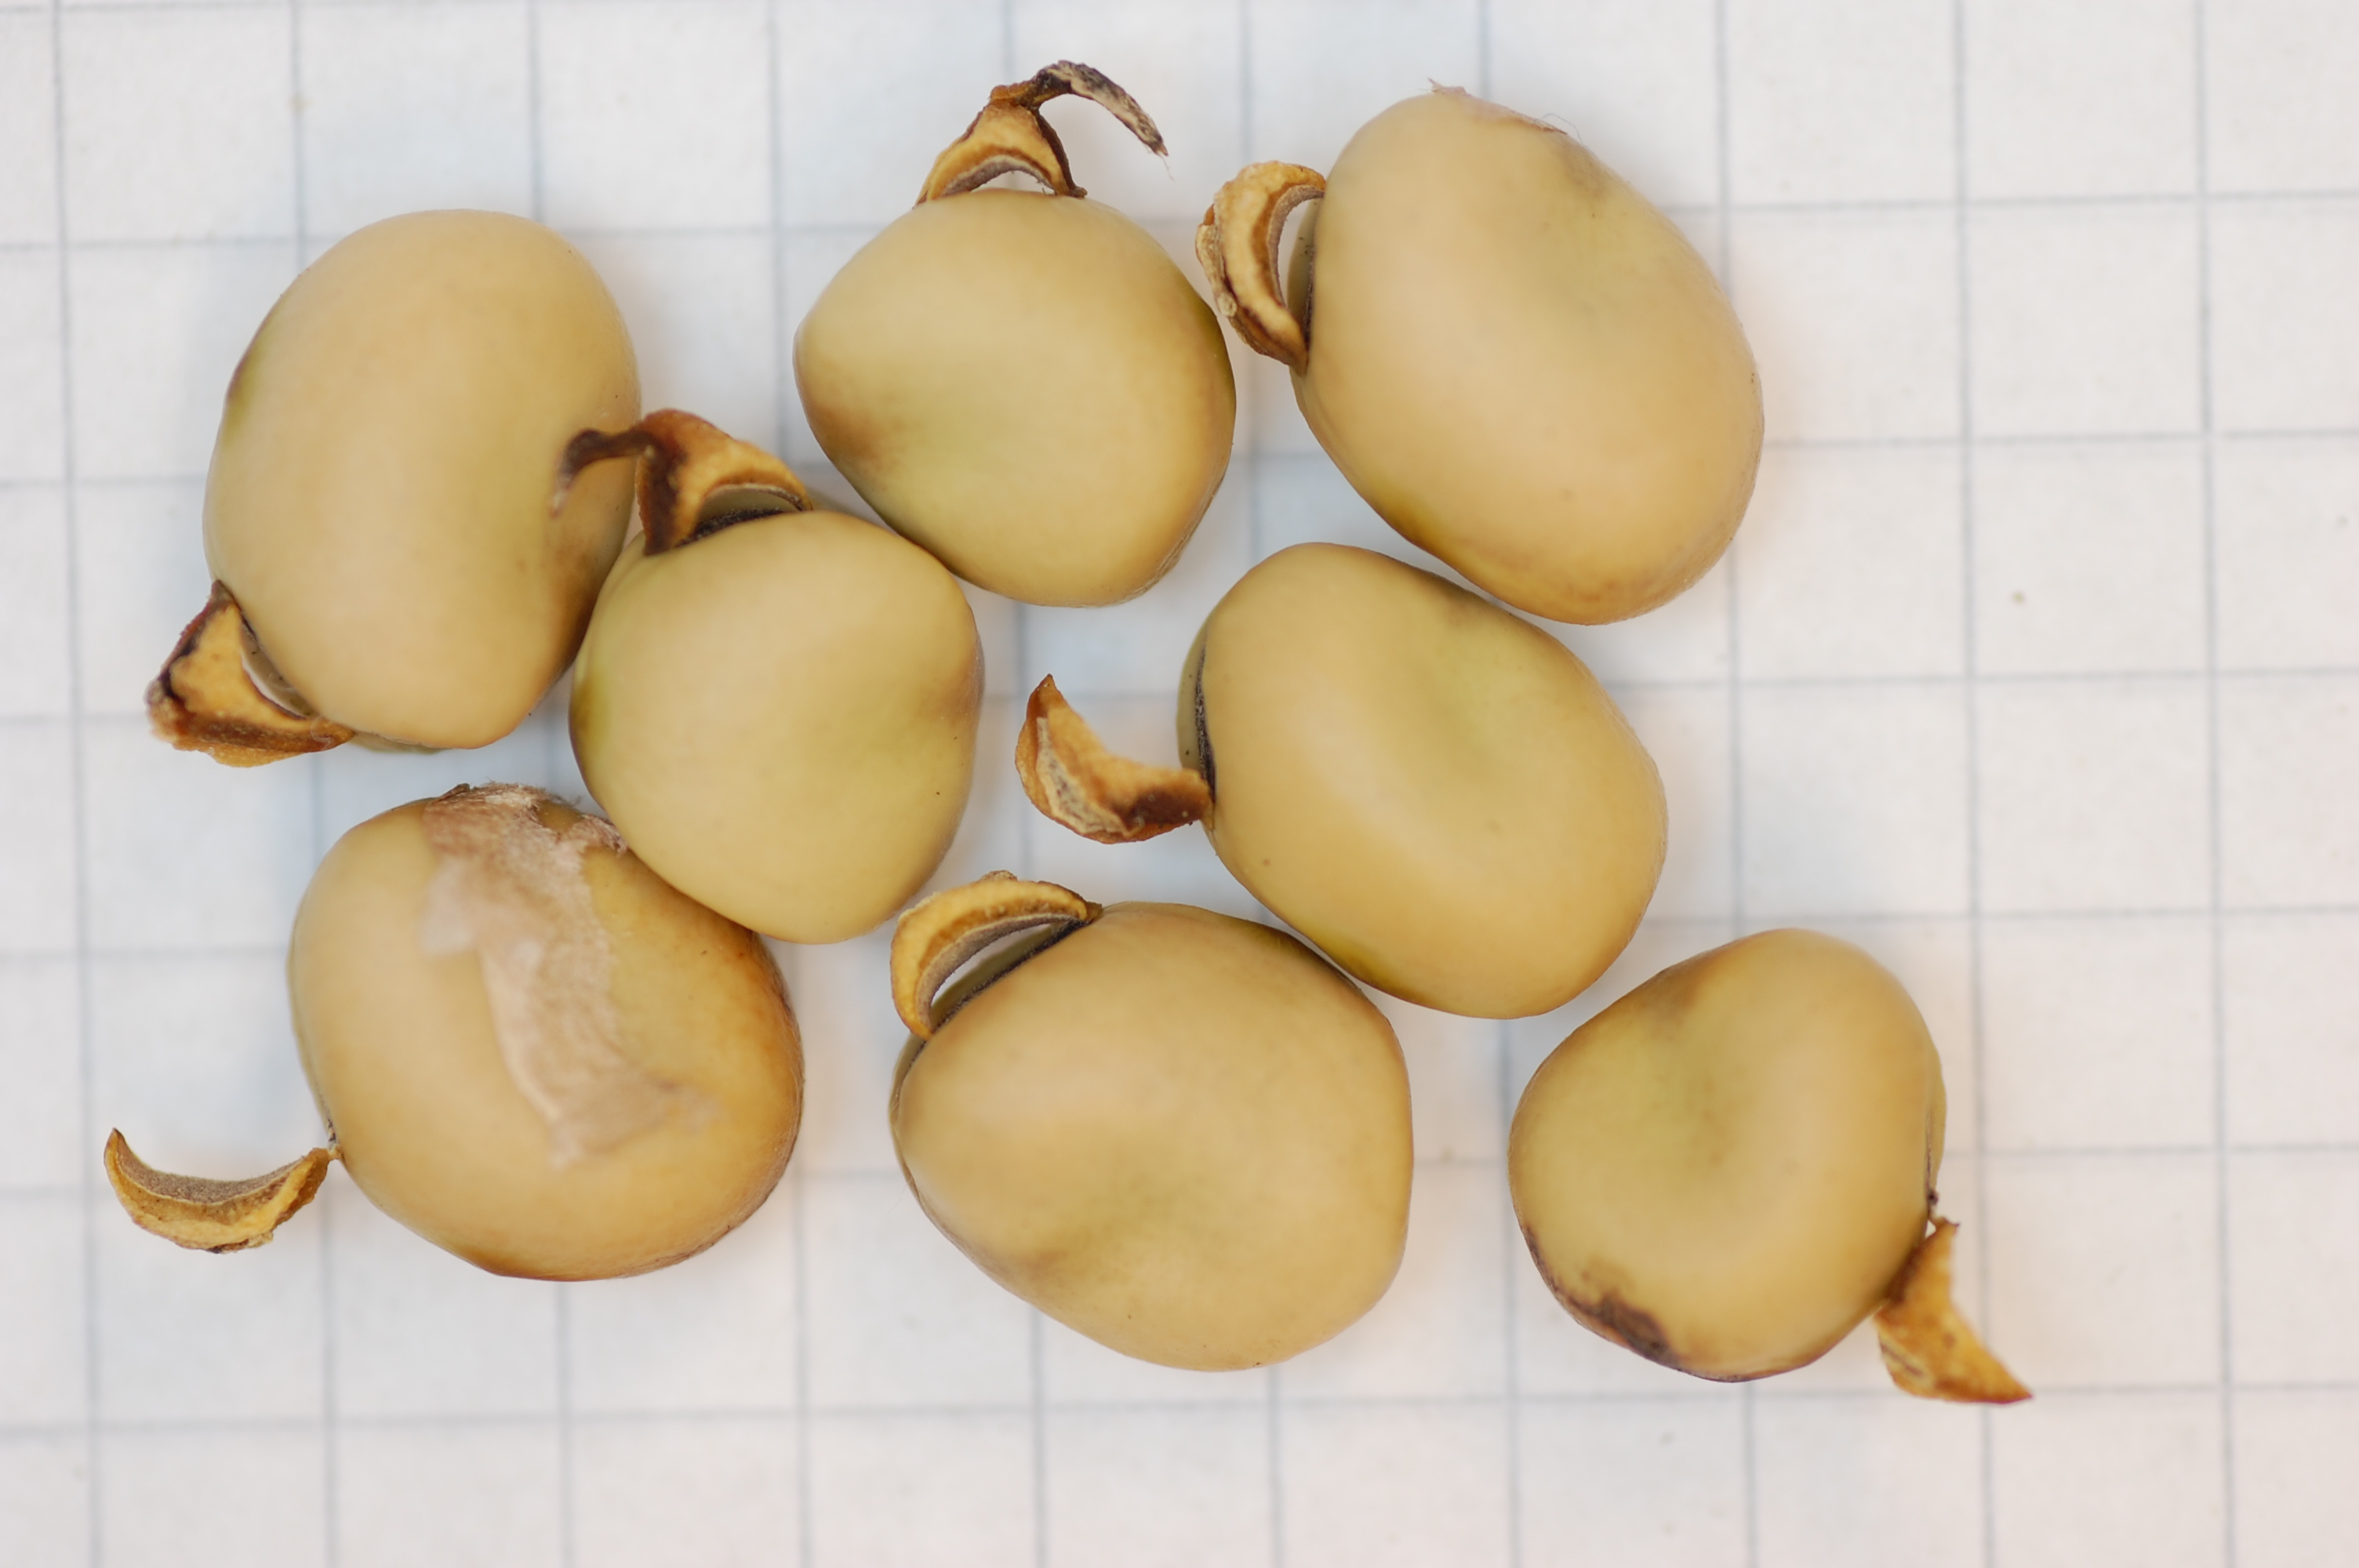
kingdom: Plantae
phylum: Tracheophyta
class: Magnoliopsida
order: Fabales
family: Fabaceae
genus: Vicia
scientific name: Vicia faba
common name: Broad bean
